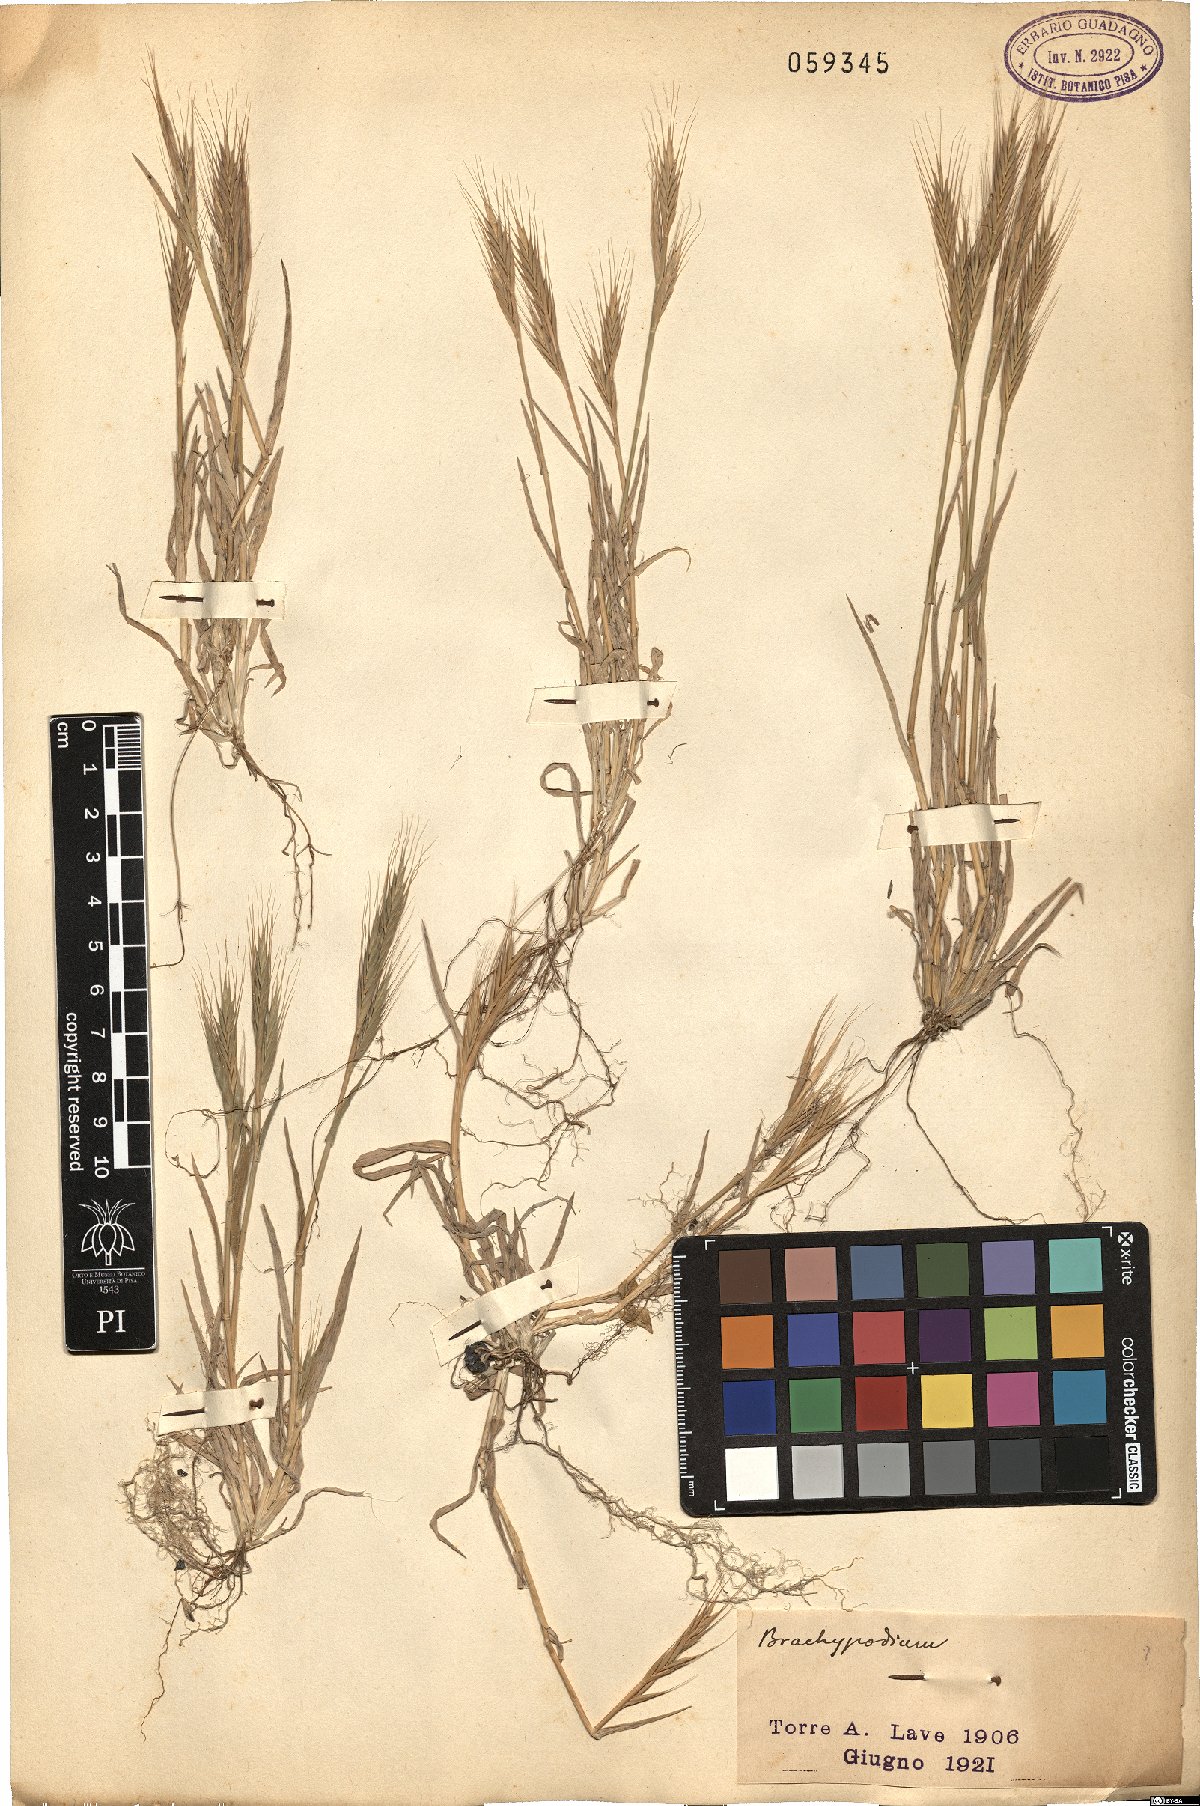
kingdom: Plantae
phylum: Tracheophyta
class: Liliopsida
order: Poales
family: Poaceae
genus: Brachypodium
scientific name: Brachypodium
